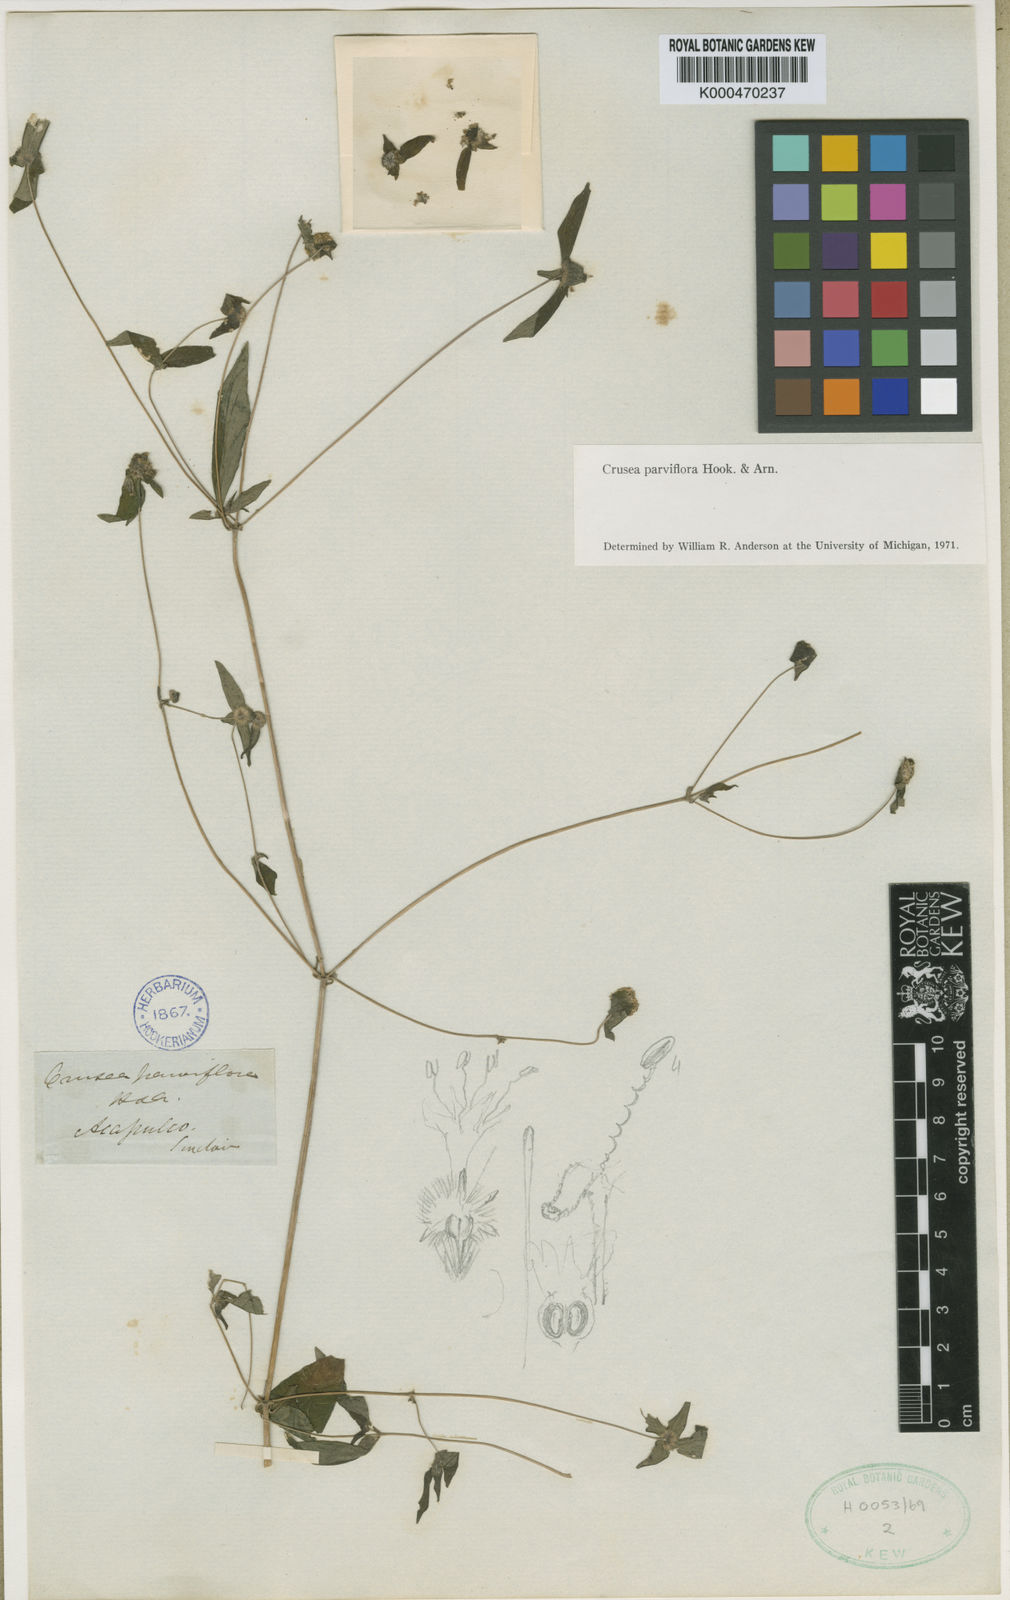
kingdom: Plantae
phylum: Tracheophyta
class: Magnoliopsida
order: Gentianales
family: Rubiaceae
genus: Crusea
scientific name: Crusea parviflora
